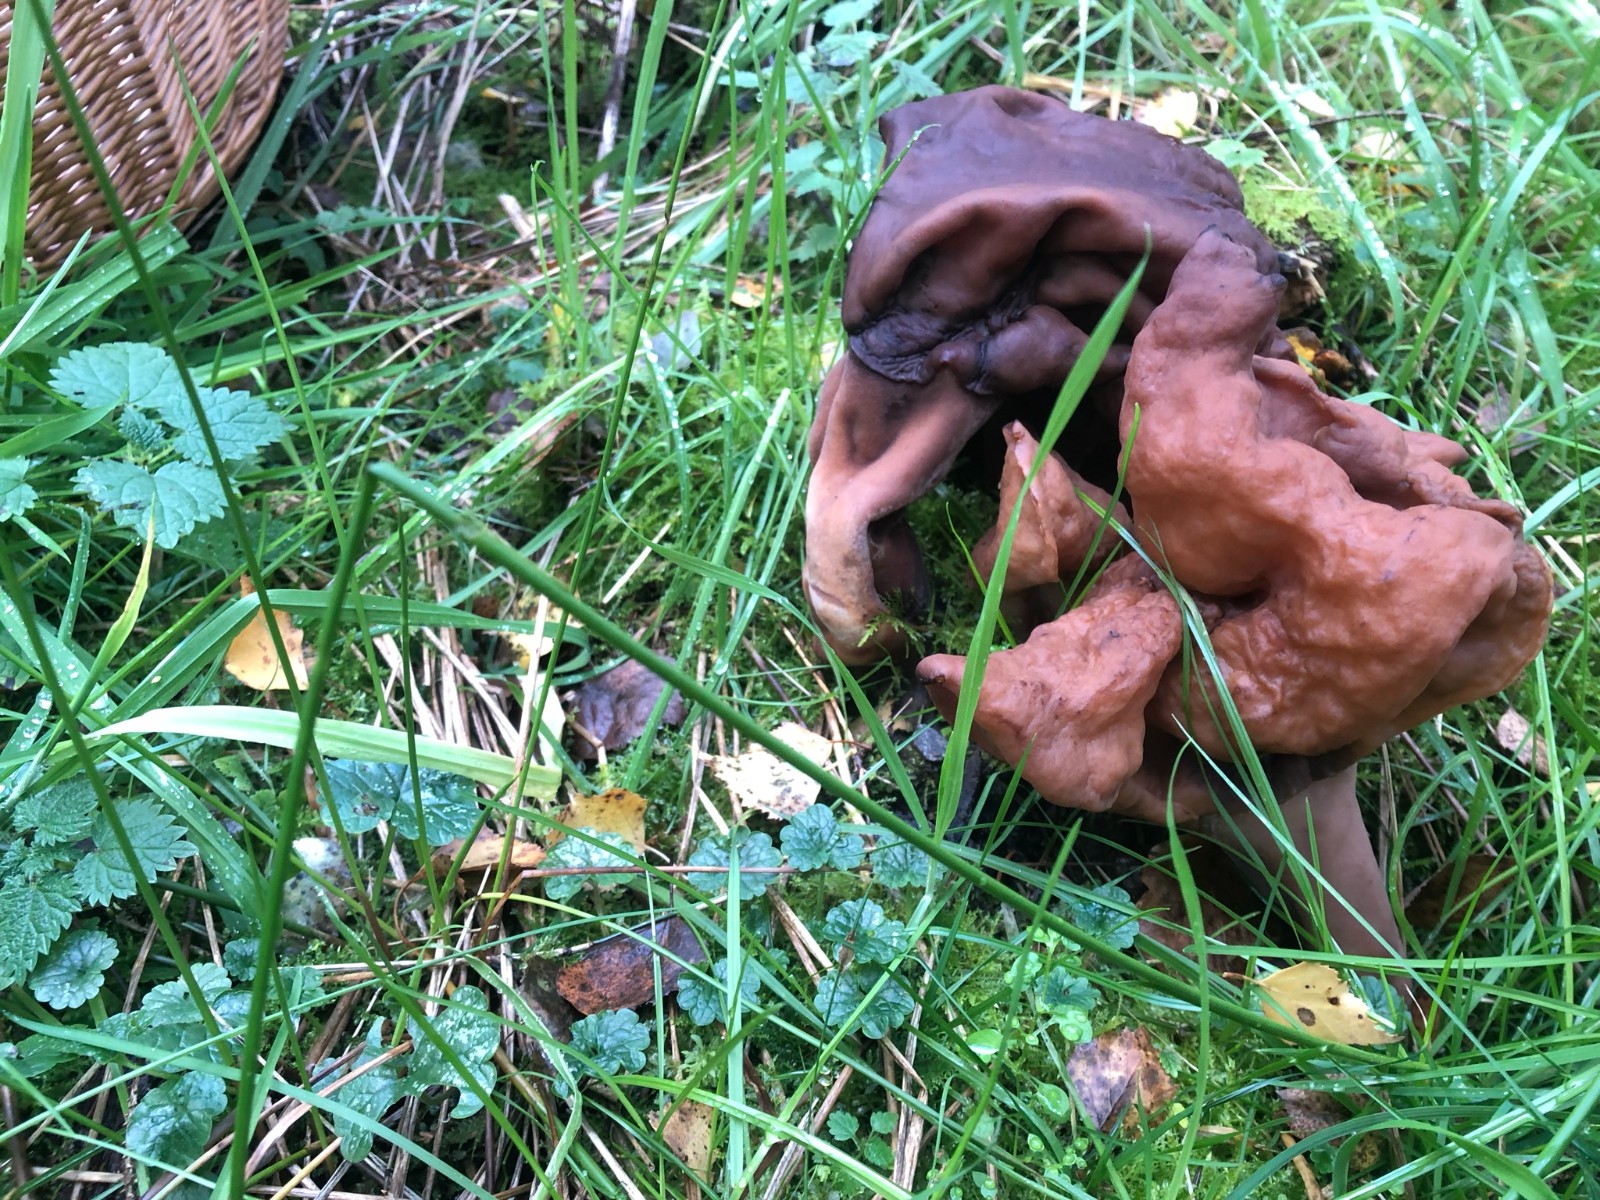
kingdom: Fungi
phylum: Ascomycota
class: Pezizomycetes
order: Pezizales
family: Discinaceae
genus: Gyromitra
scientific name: Gyromitra infula
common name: bispehue-stenmorkel
